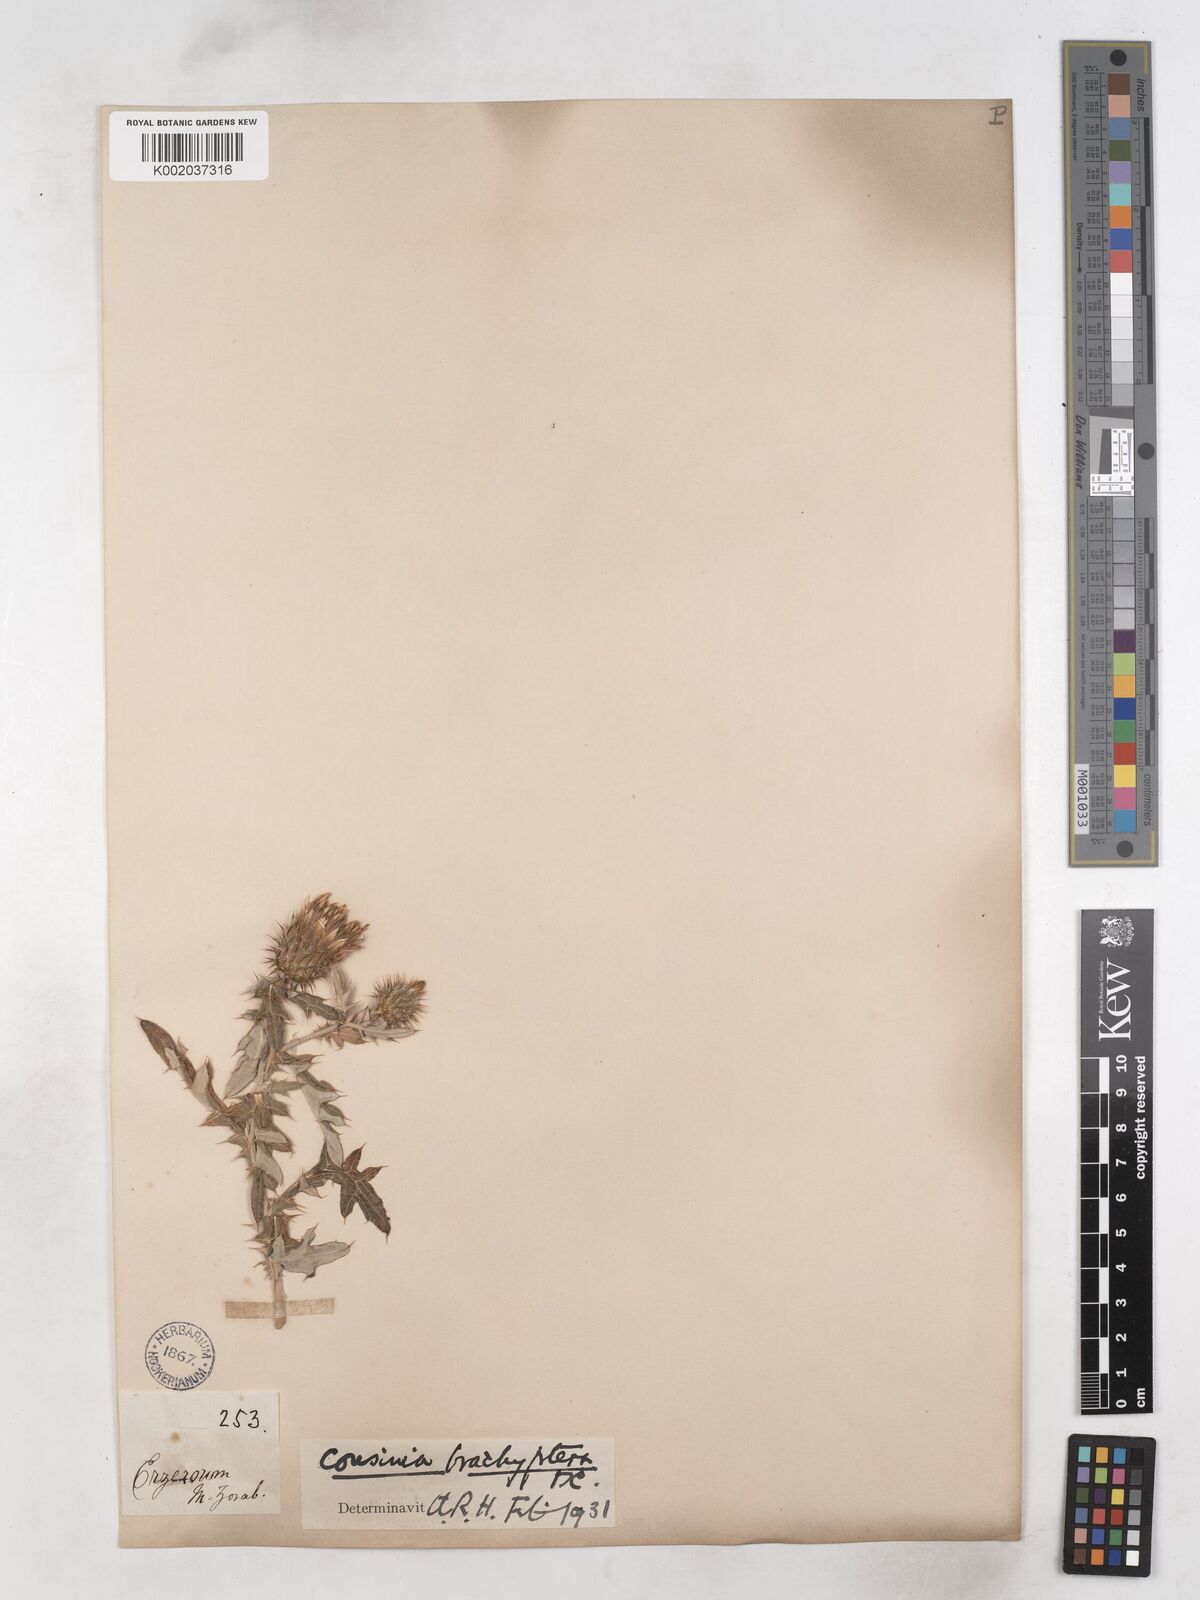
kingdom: Plantae
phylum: Tracheophyta
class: Magnoliopsida
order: Asterales
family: Asteraceae
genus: Cousinia
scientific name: Cousinia brachyptera
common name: Short-winged cousinia
